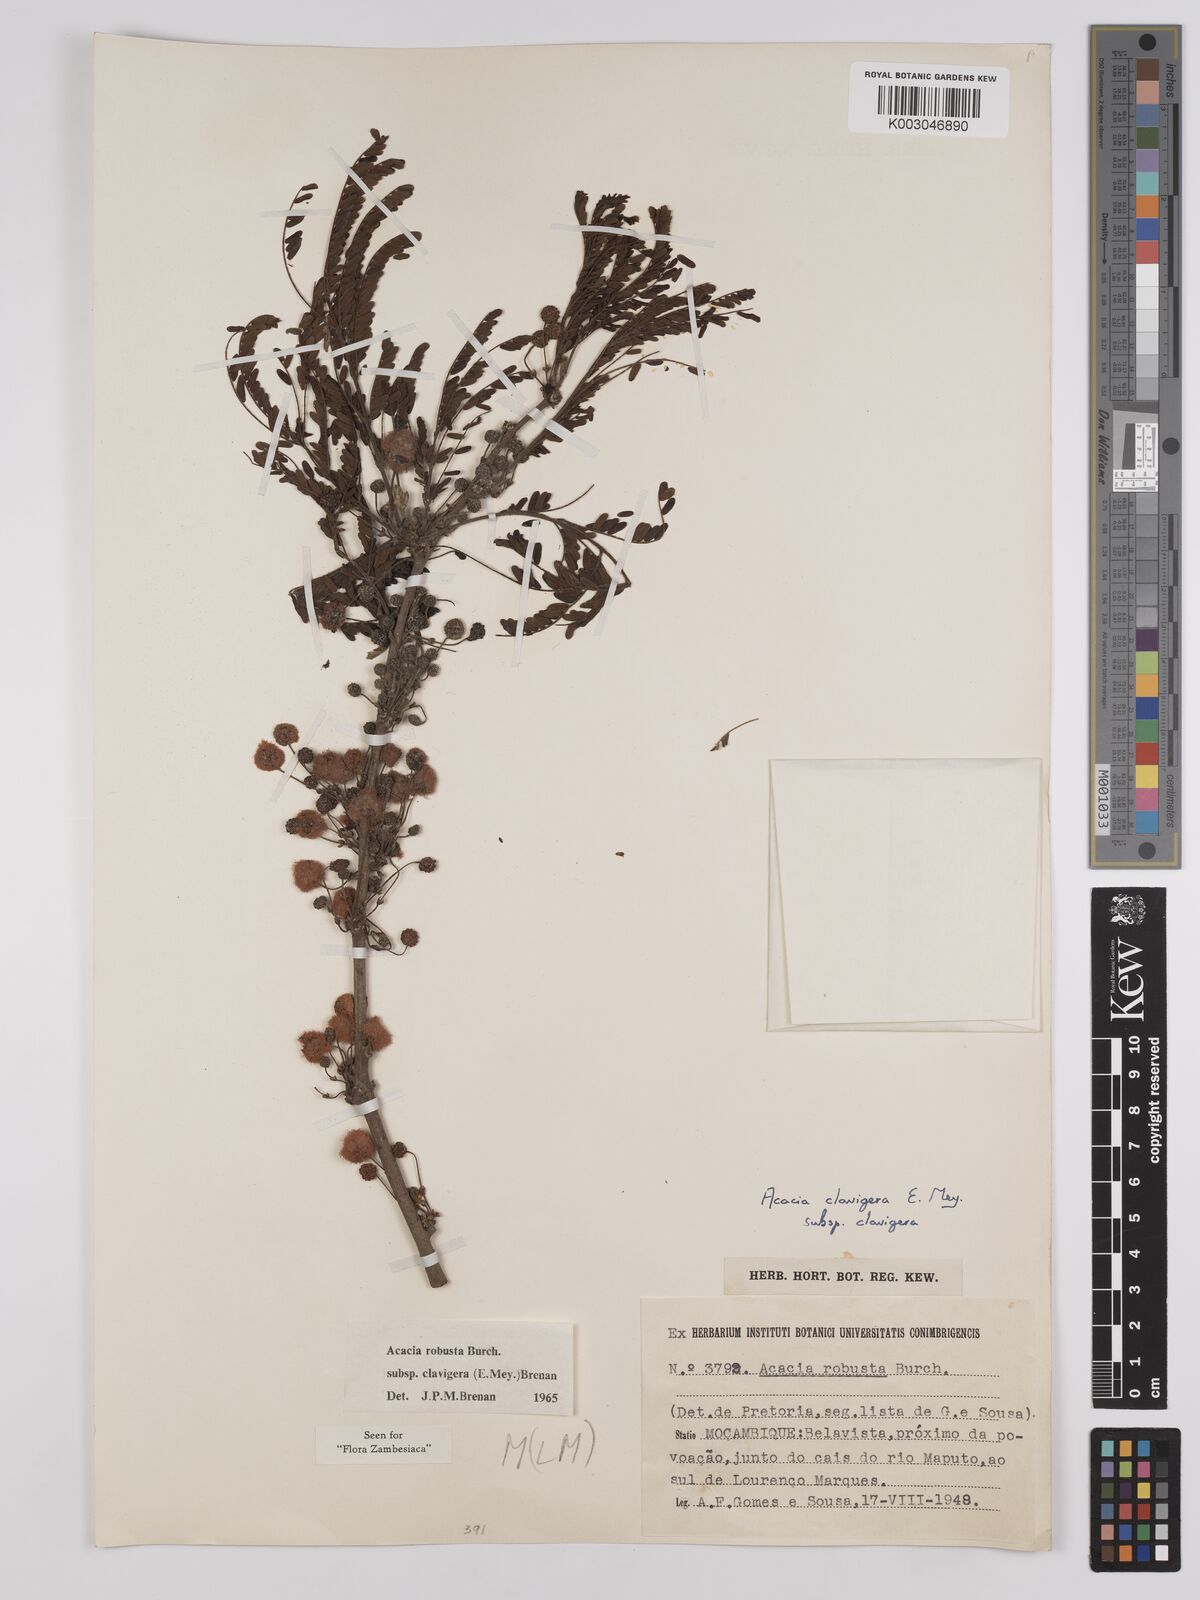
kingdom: Plantae
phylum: Tracheophyta
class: Magnoliopsida
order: Fabales
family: Fabaceae
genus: Vachellia
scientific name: Vachellia robusta
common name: Ankle thorn
